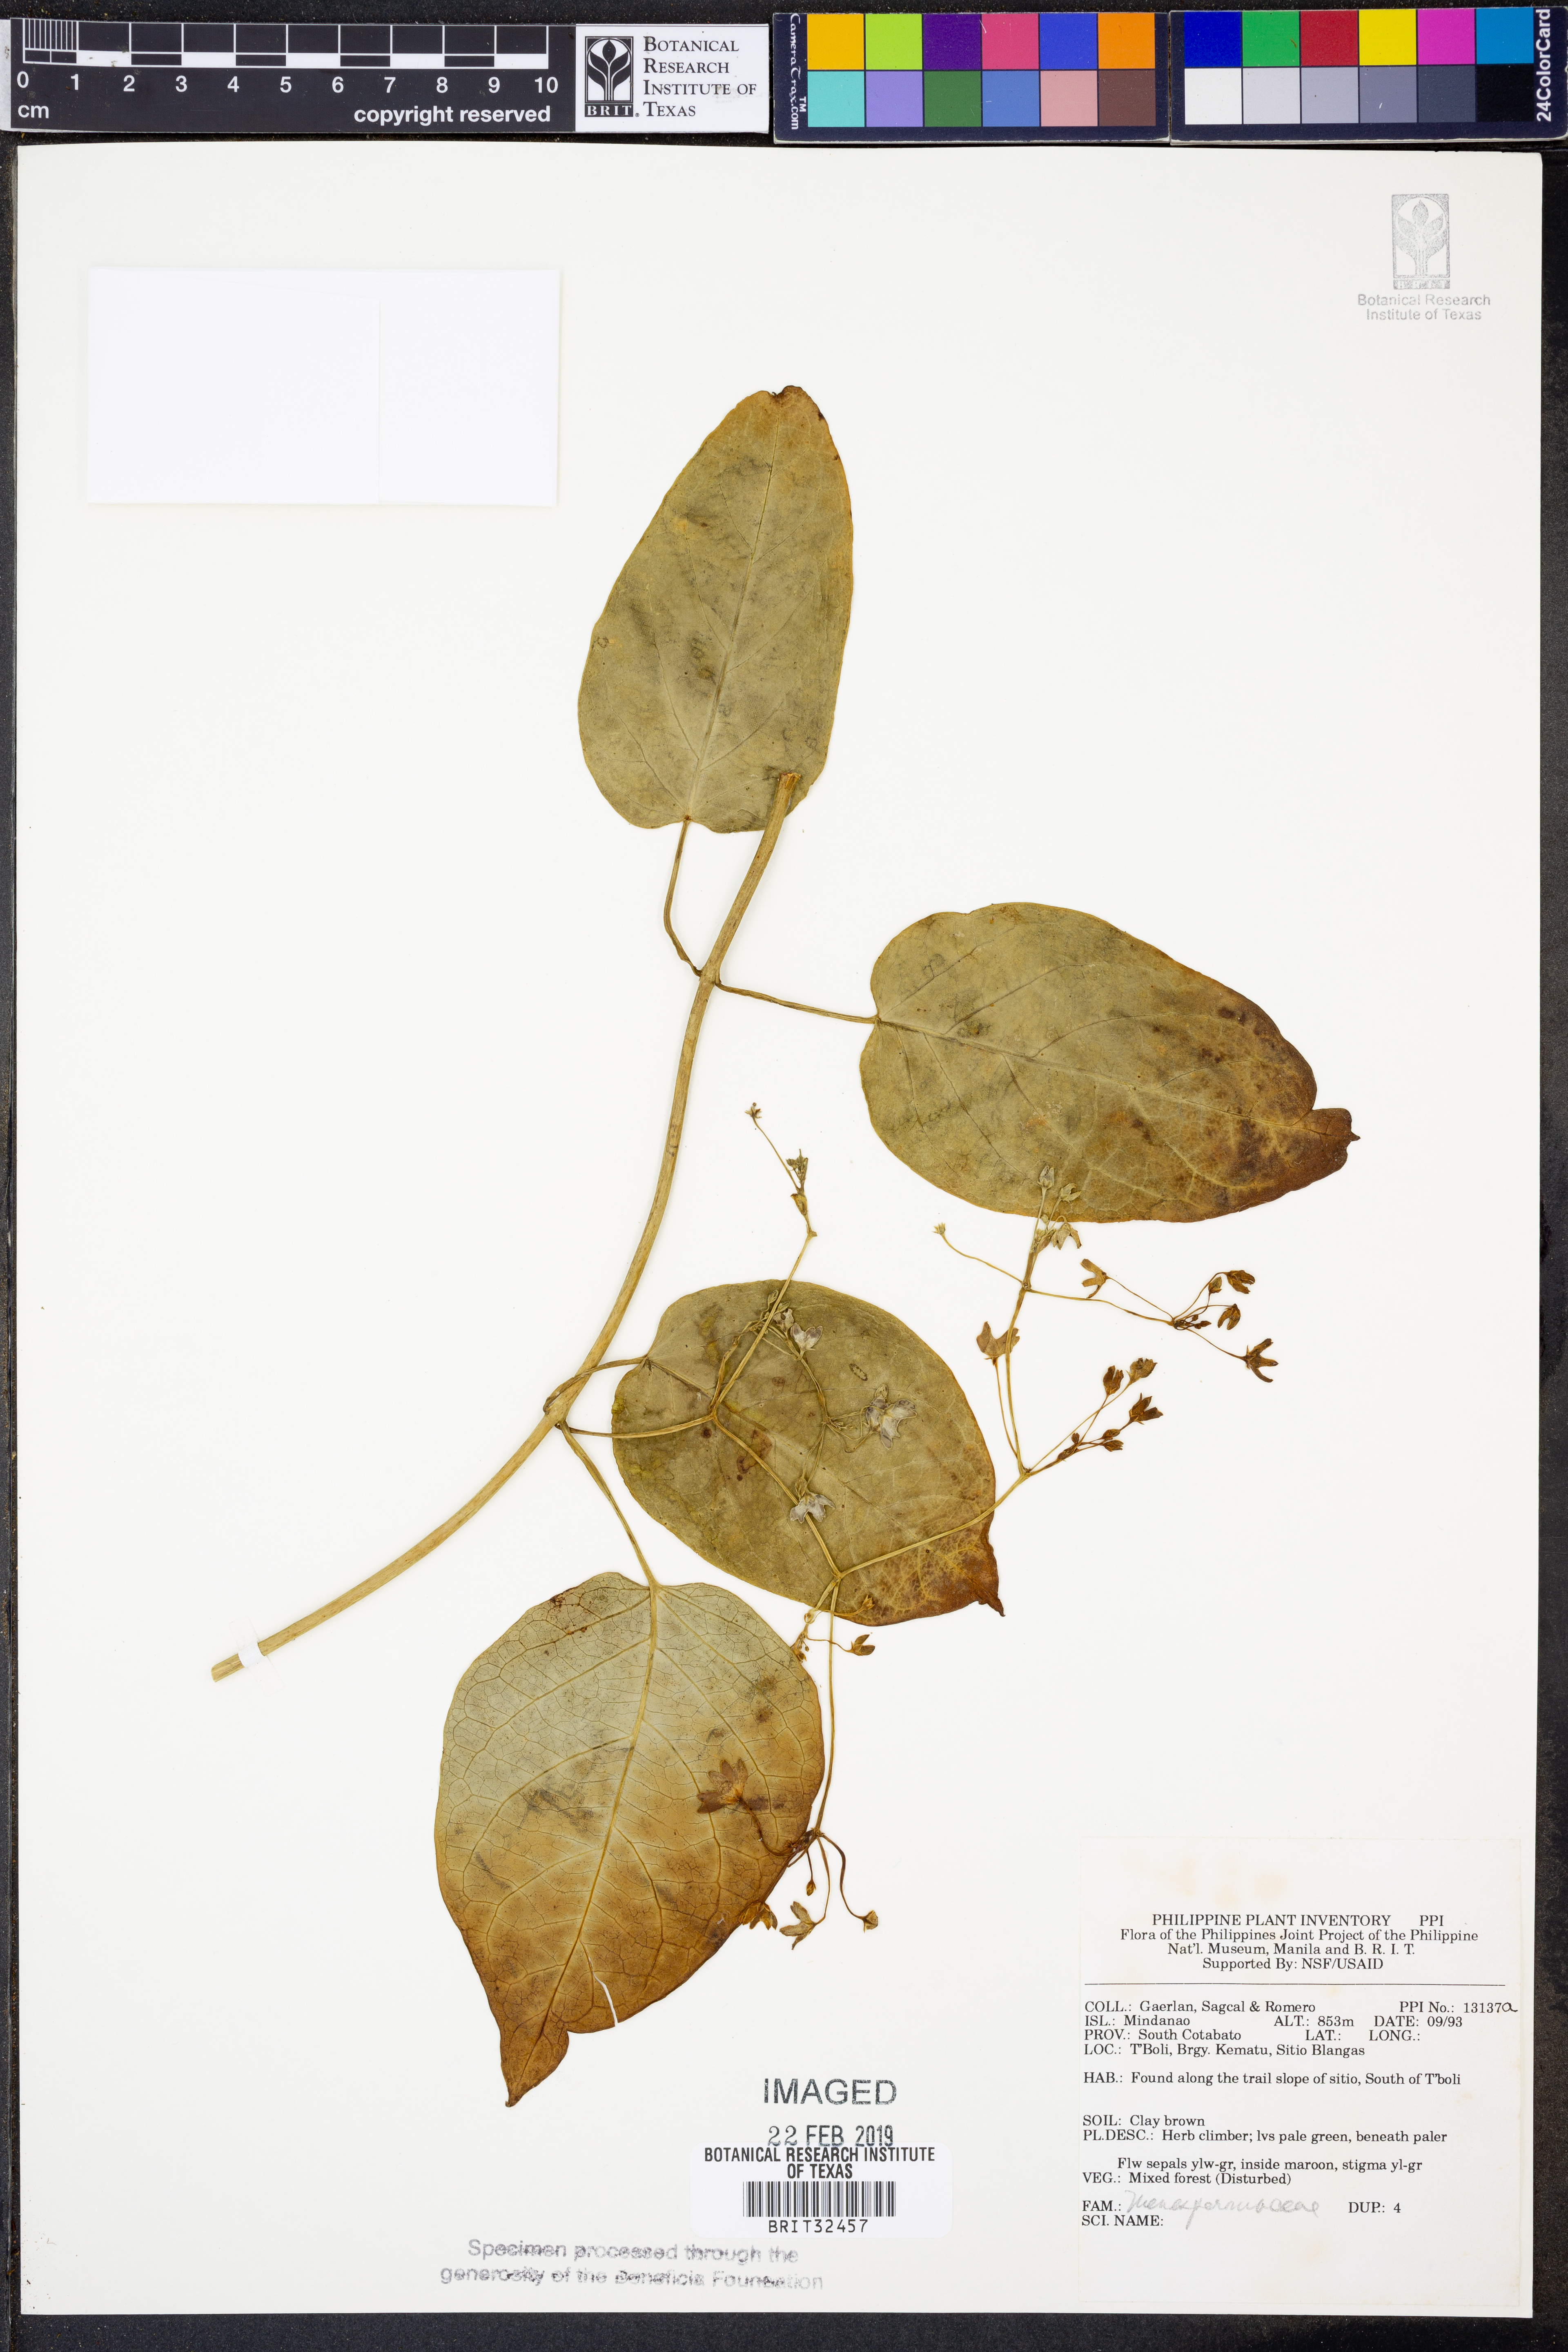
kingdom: Plantae
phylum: Tracheophyta
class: Magnoliopsida
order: Ranunculales
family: Menispermaceae
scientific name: Menispermaceae
